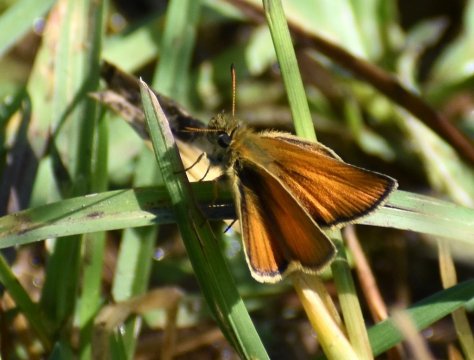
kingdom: Animalia
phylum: Arthropoda
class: Insecta
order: Lepidoptera
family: Hesperiidae
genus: Thymelicus
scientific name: Thymelicus lineola
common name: European Skipper
